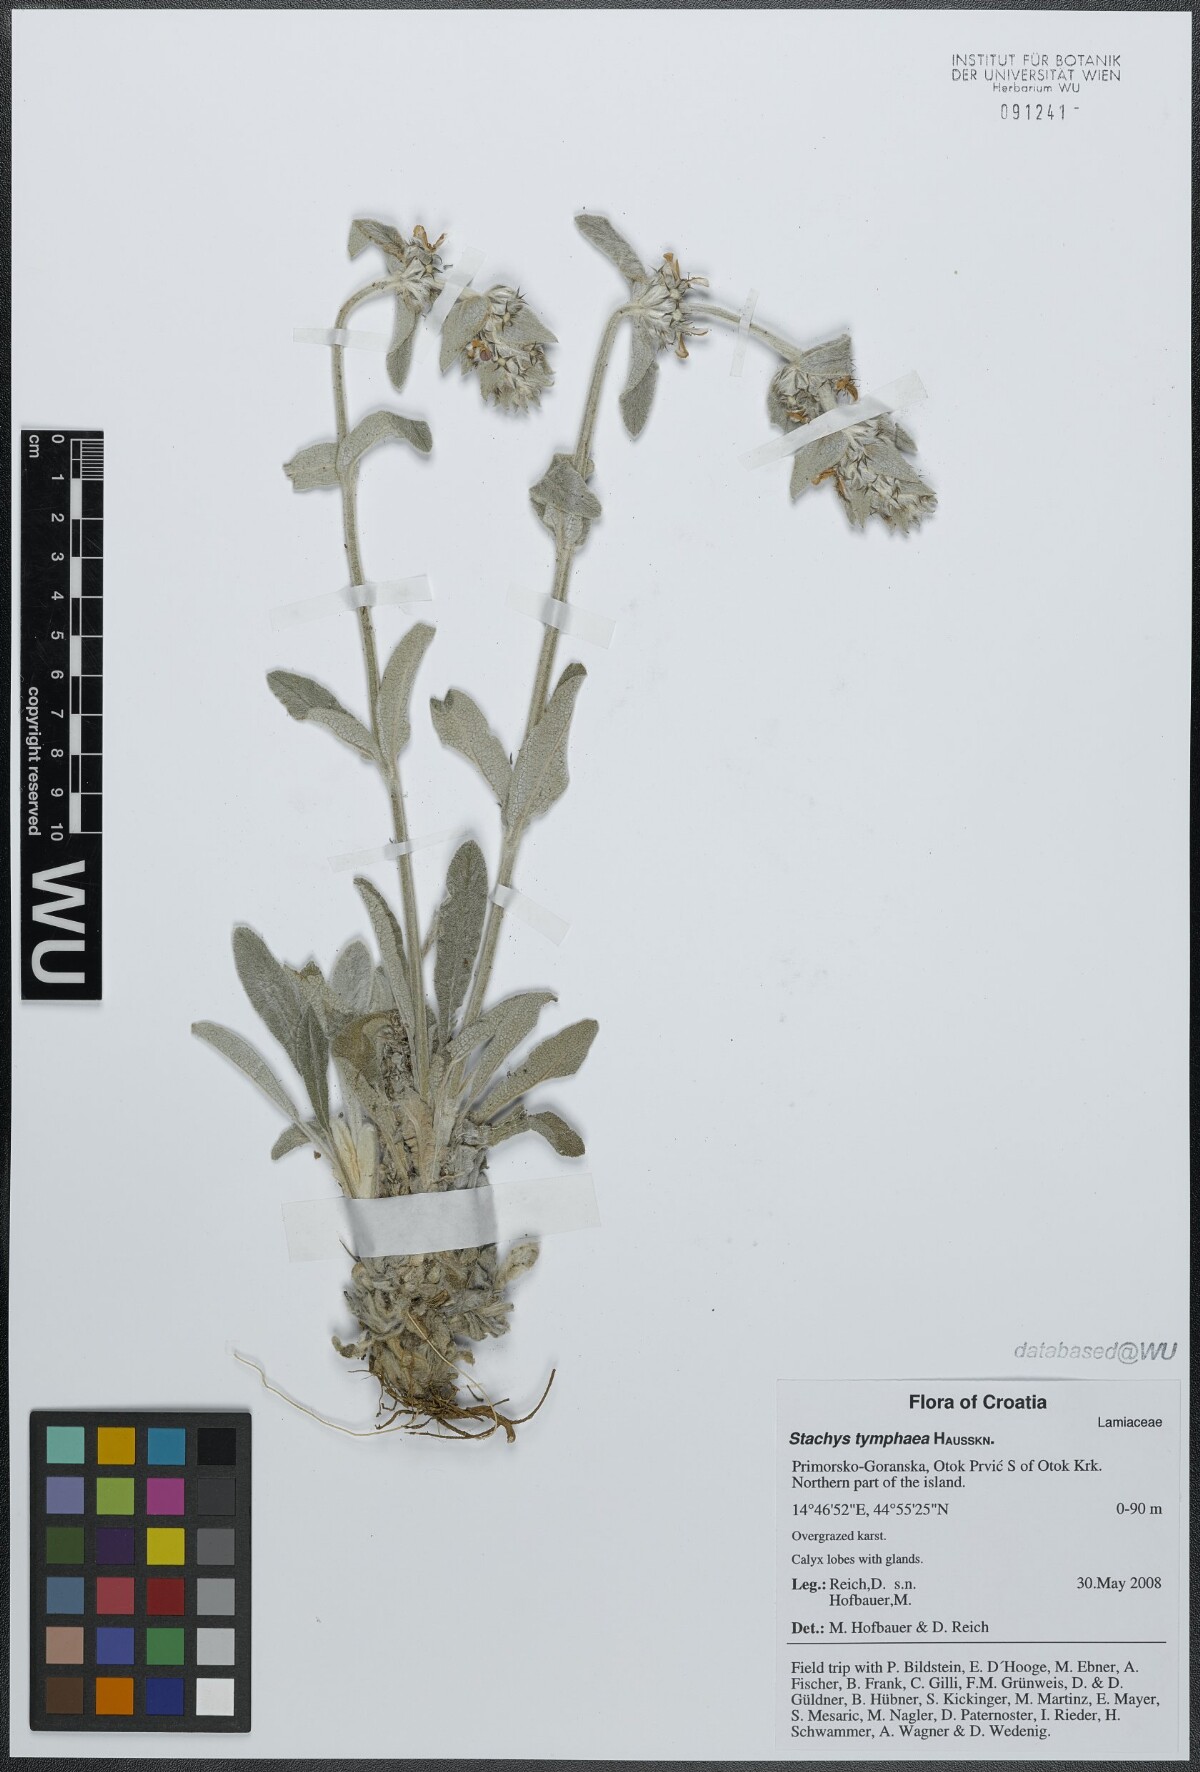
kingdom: Plantae
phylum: Tracheophyta
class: Magnoliopsida
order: Lamiales
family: Lamiaceae
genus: Stachys
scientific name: Stachys tymphaea
